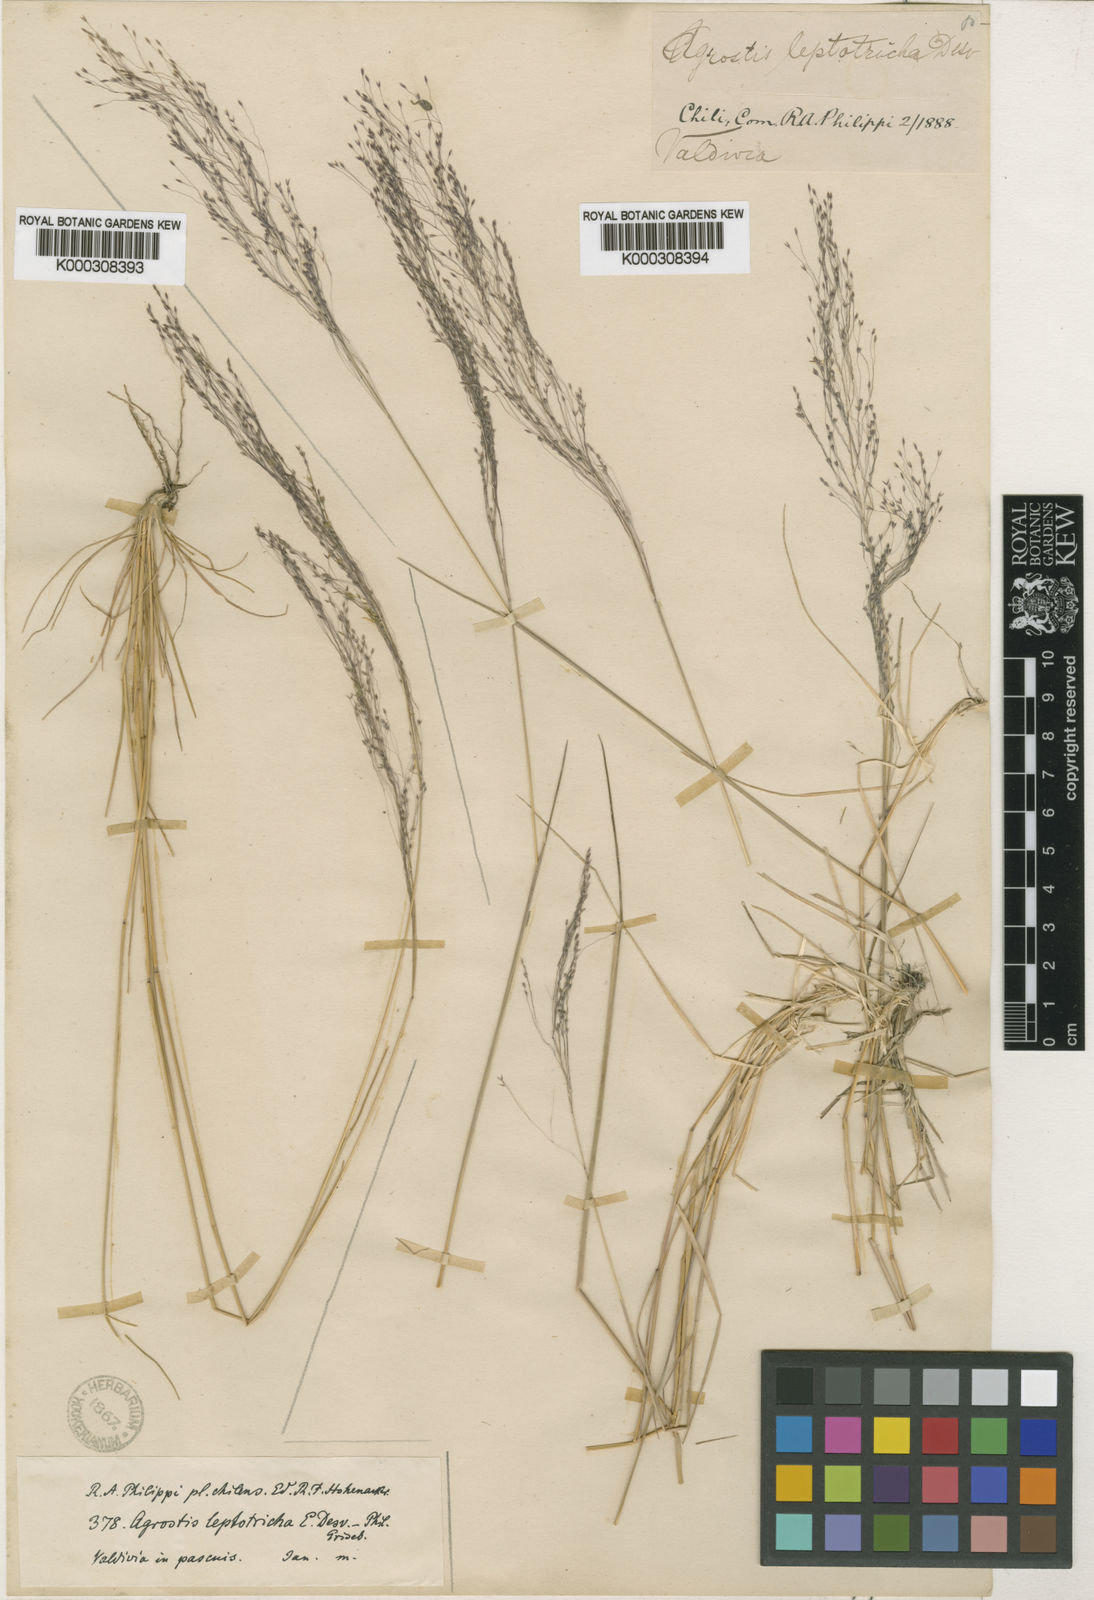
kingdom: Plantae
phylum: Tracheophyta
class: Liliopsida
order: Poales
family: Poaceae
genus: Agrostis
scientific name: Agrostis leptotricha
